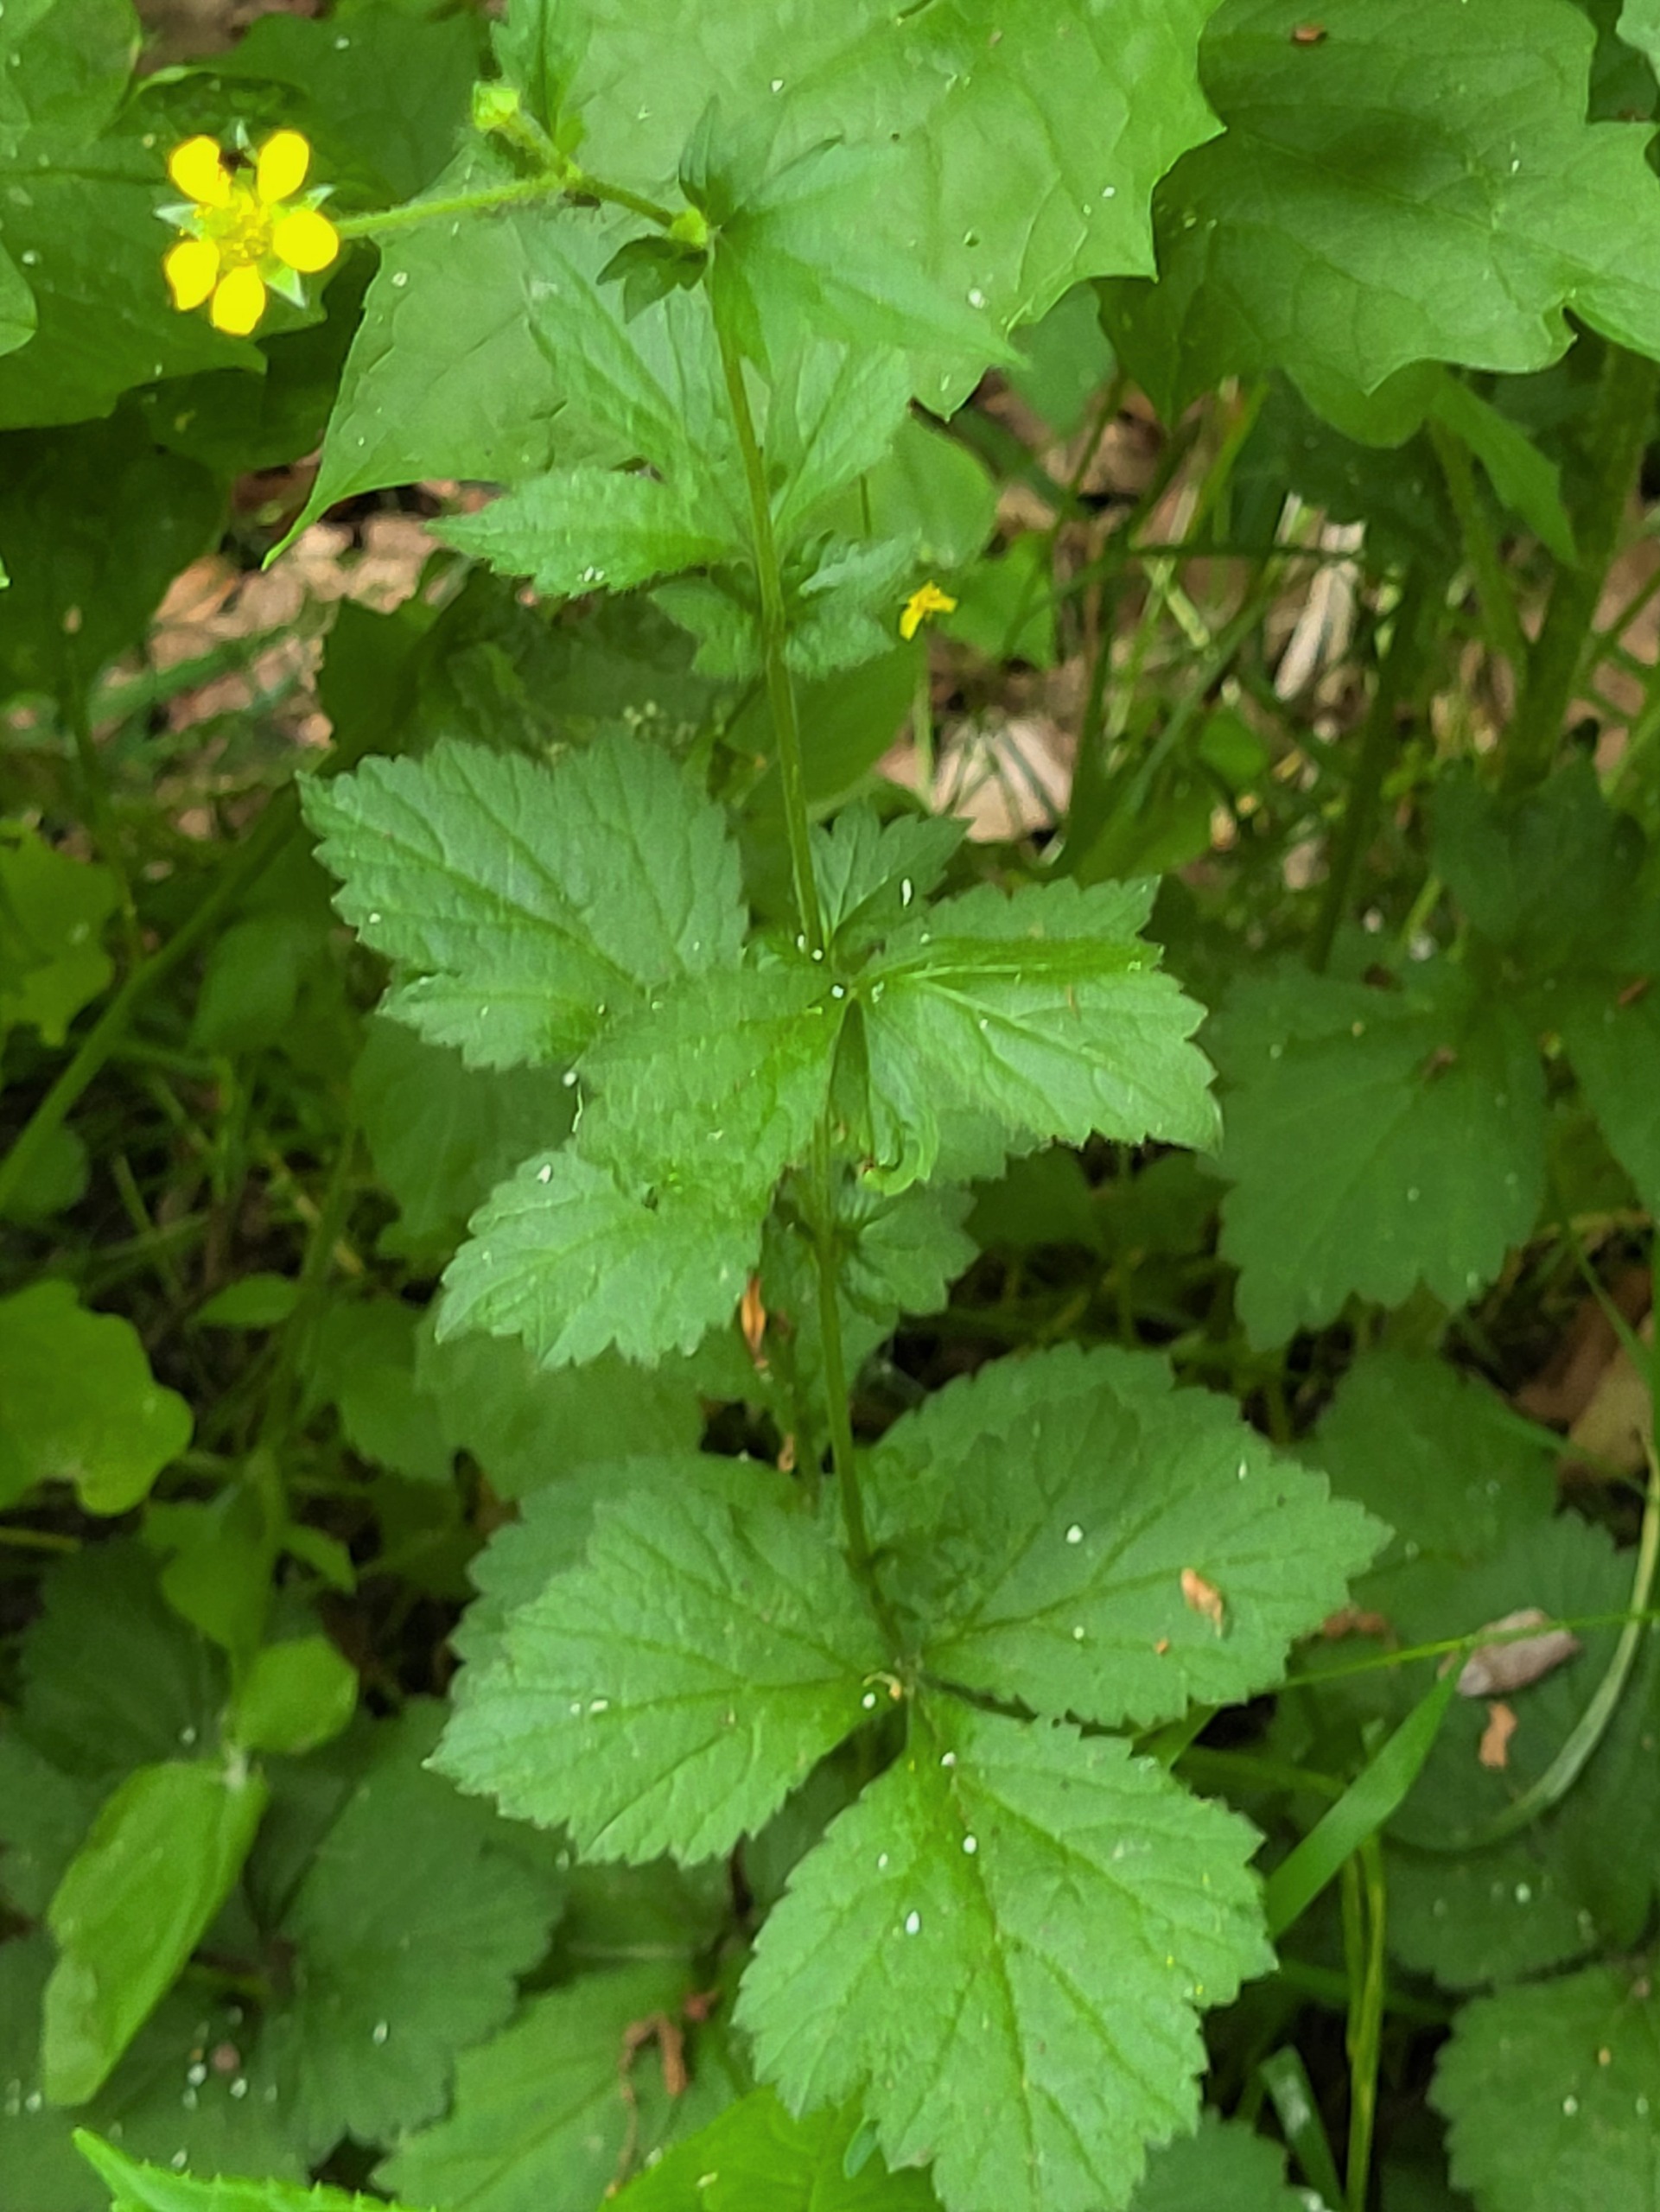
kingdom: Plantae
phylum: Tracheophyta
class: Magnoliopsida
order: Rosales
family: Rosaceae
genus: Geum
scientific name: Geum urbanum
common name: Feber-nellikerod
